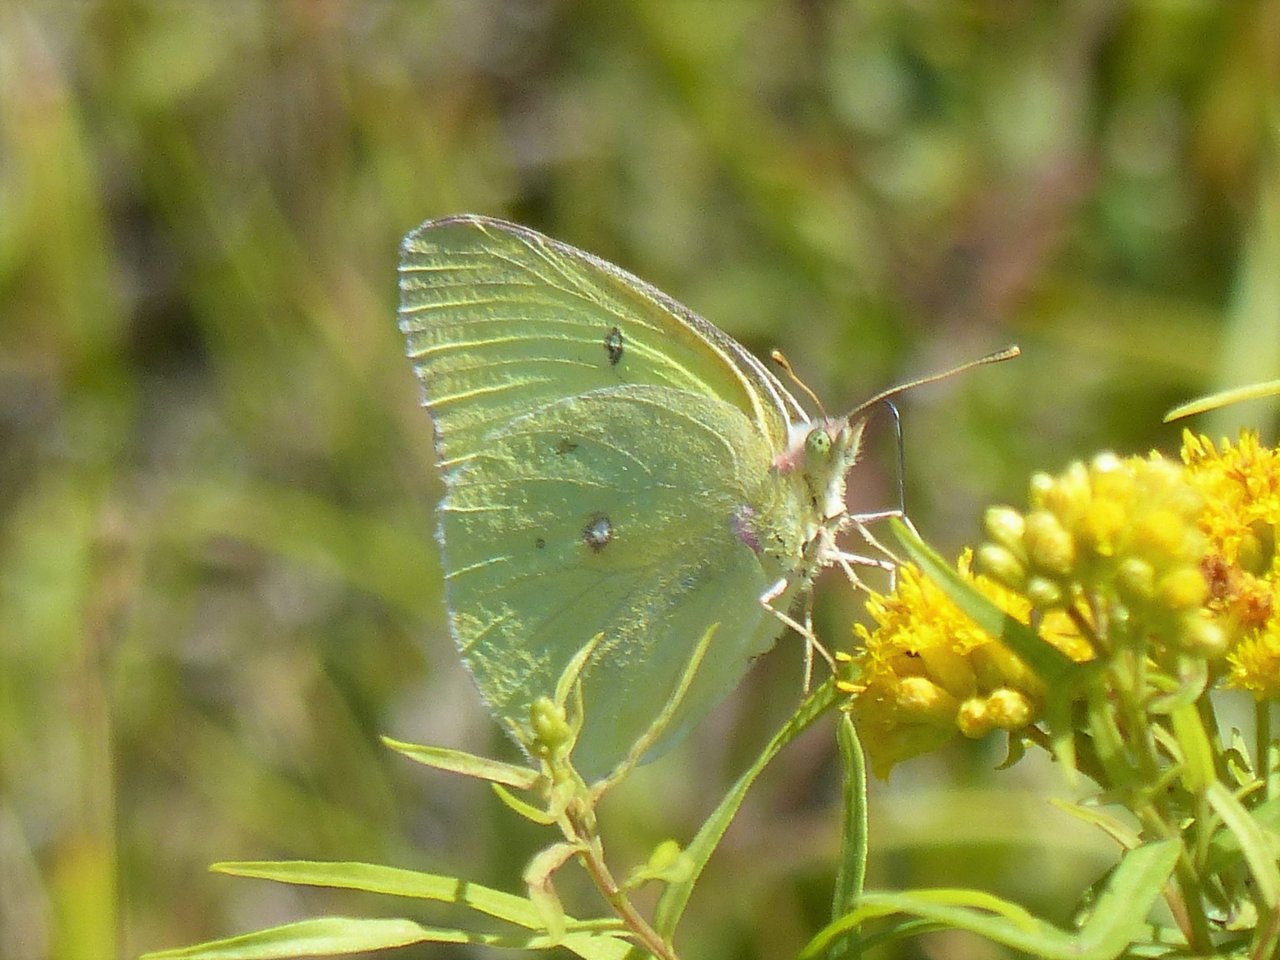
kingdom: Animalia
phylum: Arthropoda
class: Insecta
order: Lepidoptera
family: Pieridae
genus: Colias
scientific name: Colias interior
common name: Pink-edged Sulphur
